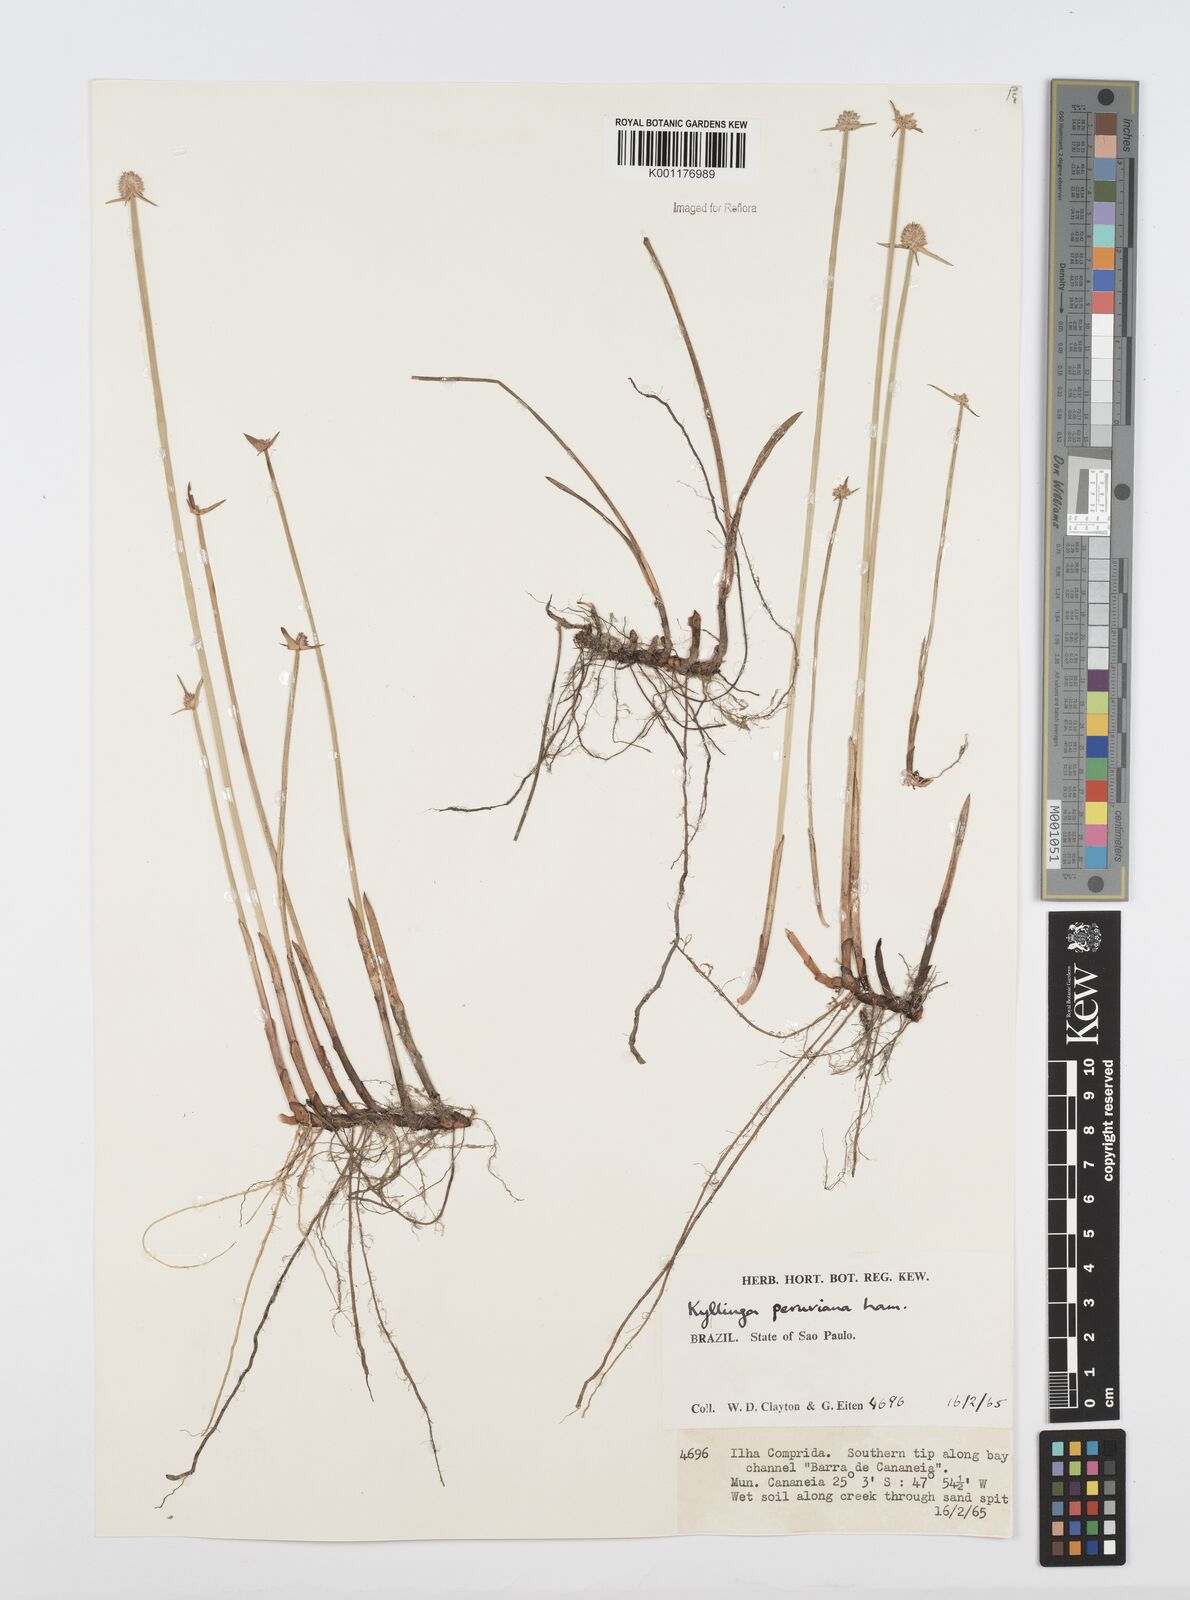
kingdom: Plantae
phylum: Tracheophyta
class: Liliopsida
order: Poales
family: Cyperaceae
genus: Cyperus
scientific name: Cyperus obtusatus
